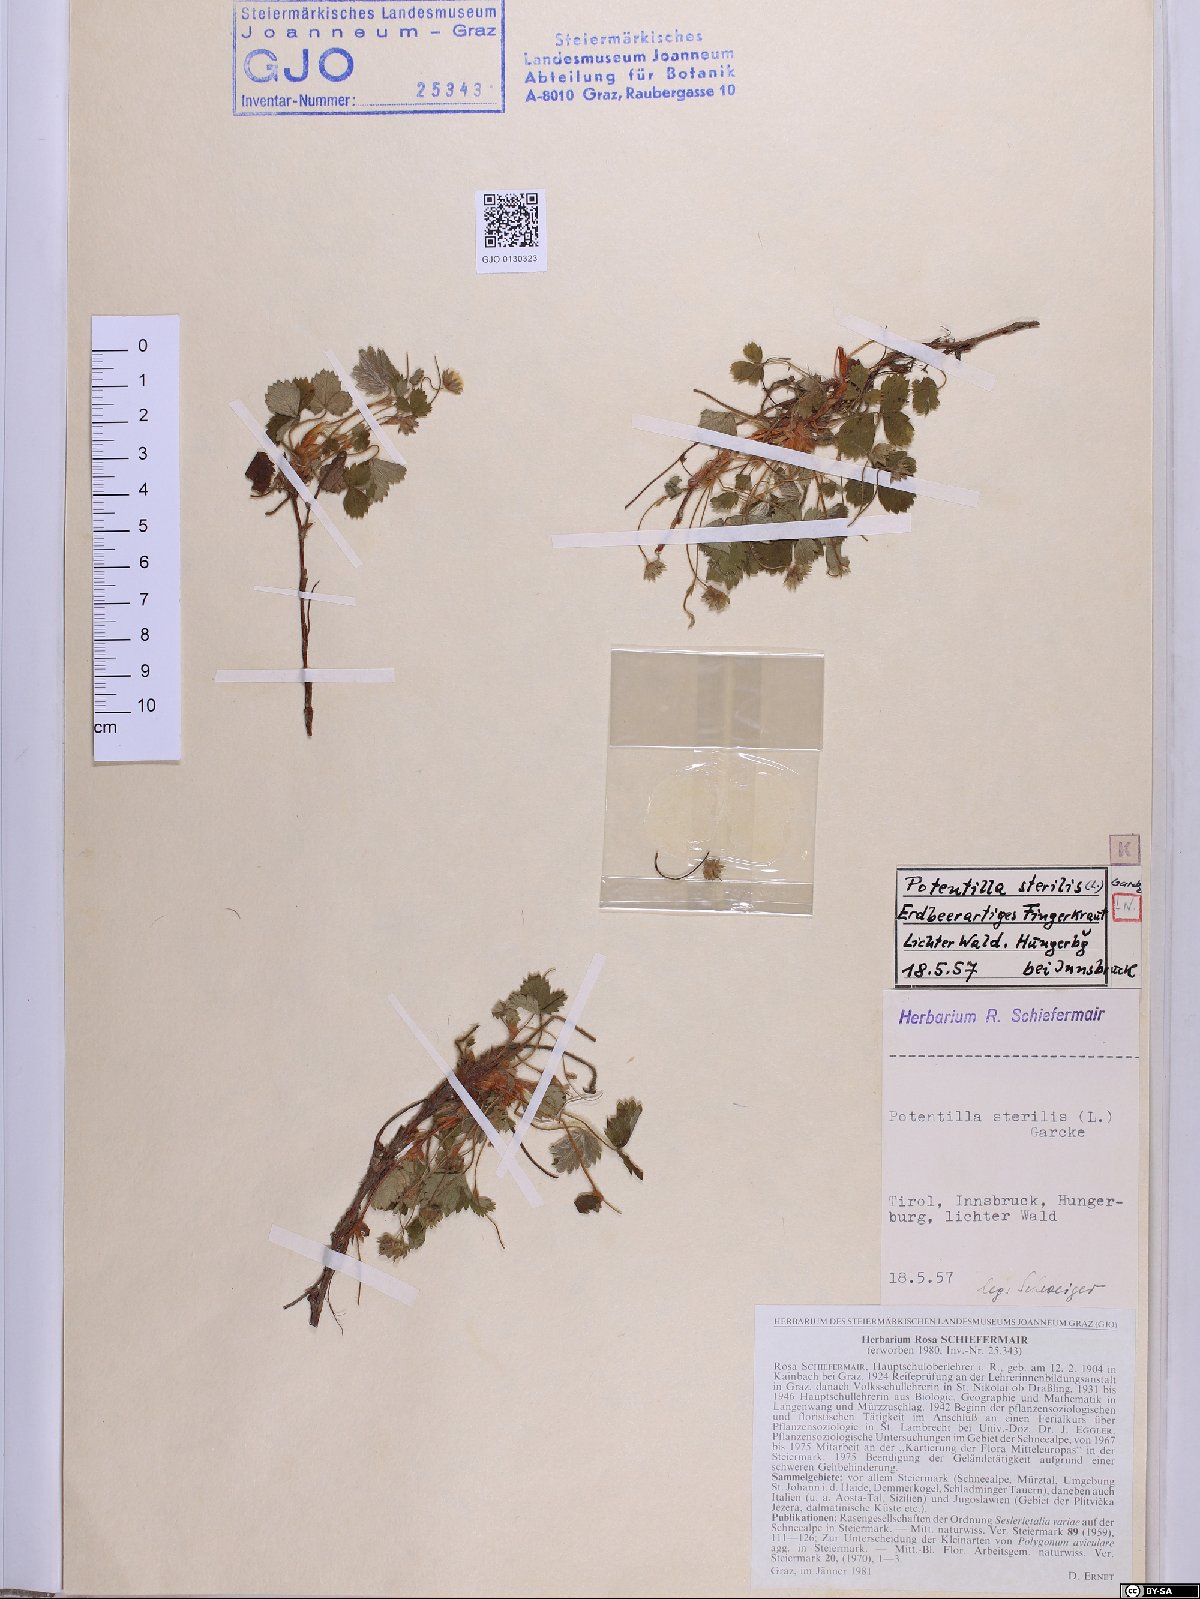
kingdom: Plantae
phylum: Tracheophyta
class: Magnoliopsida
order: Rosales
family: Rosaceae
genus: Potentilla
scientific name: Potentilla sterilis
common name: Barren strawberry
